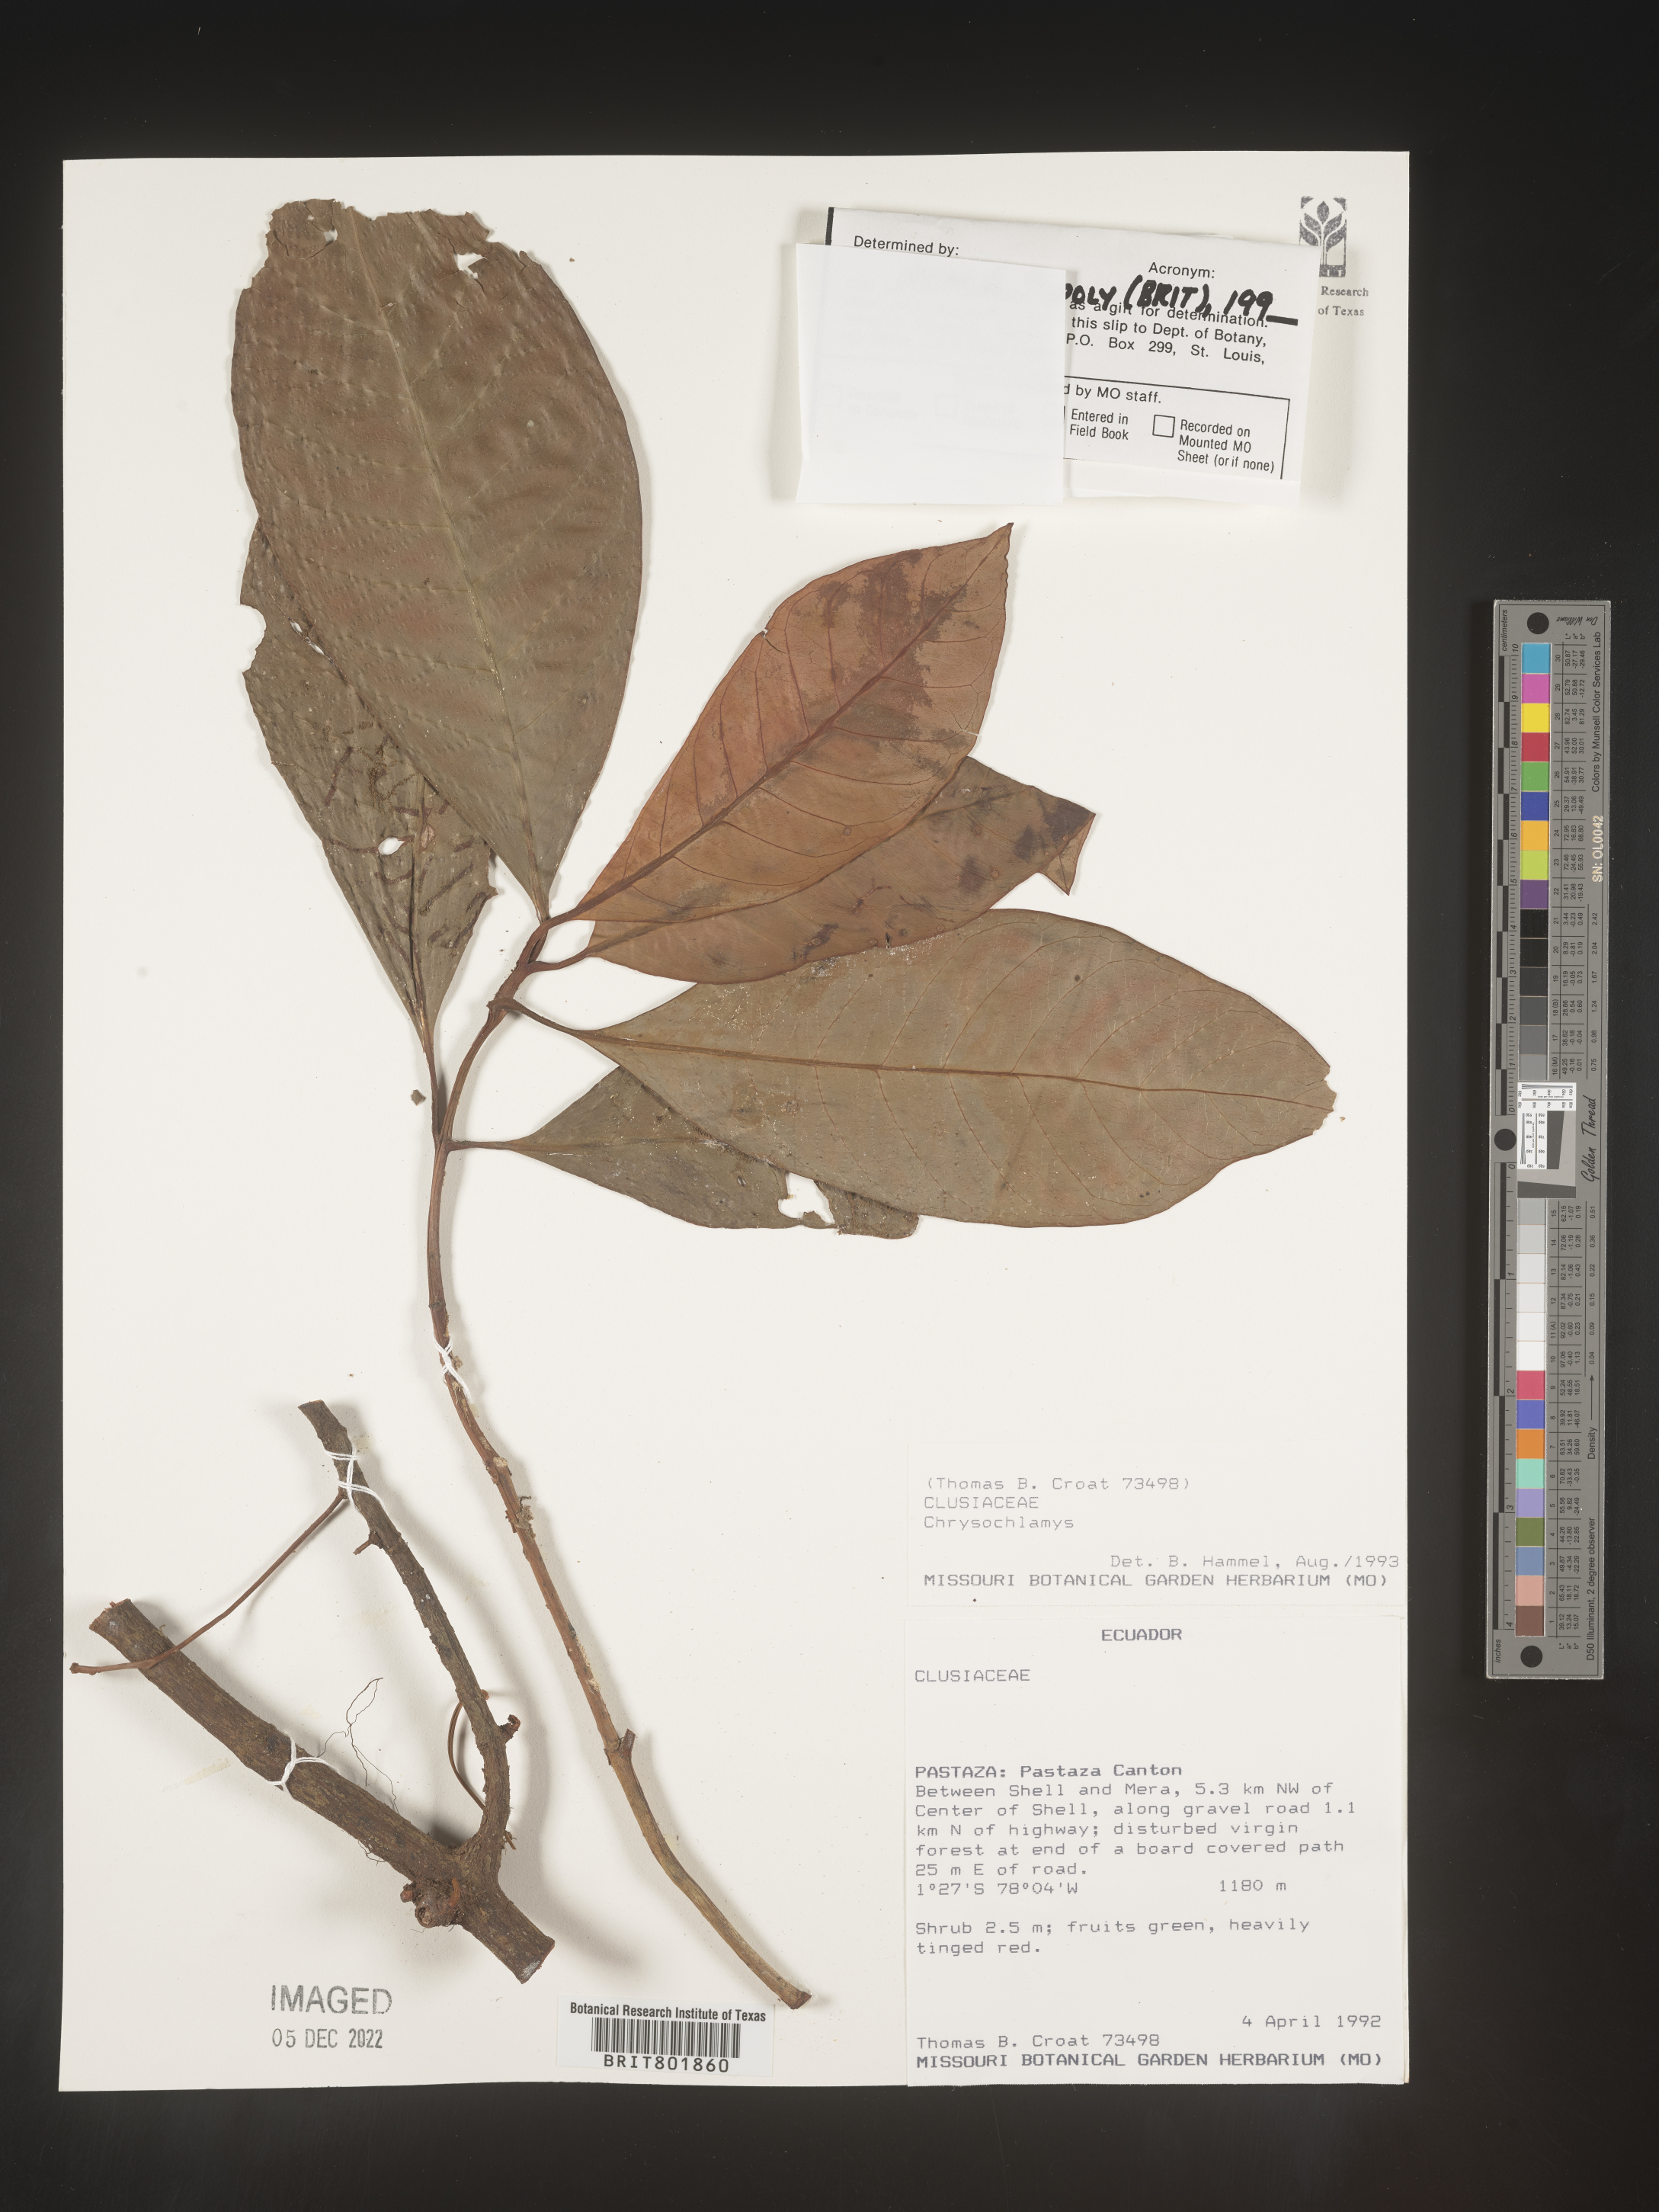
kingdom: Plantae
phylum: Tracheophyta
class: Magnoliopsida
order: Malpighiales
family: Clusiaceae
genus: Chrysochlamys
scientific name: Chrysochlamys
